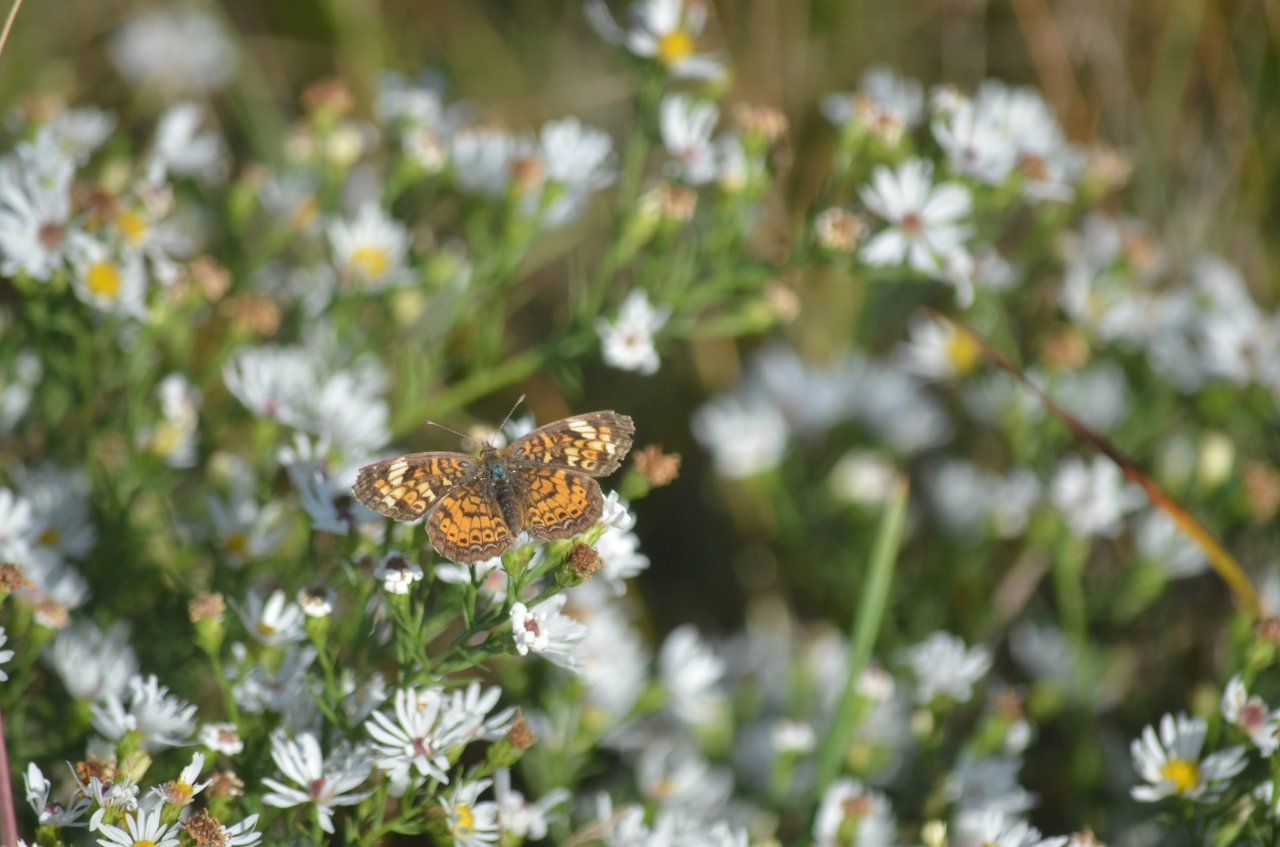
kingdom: Animalia
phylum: Arthropoda
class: Insecta
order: Lepidoptera
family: Nymphalidae
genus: Phyciodes
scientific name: Phyciodes tharos
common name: Northern Crescent
